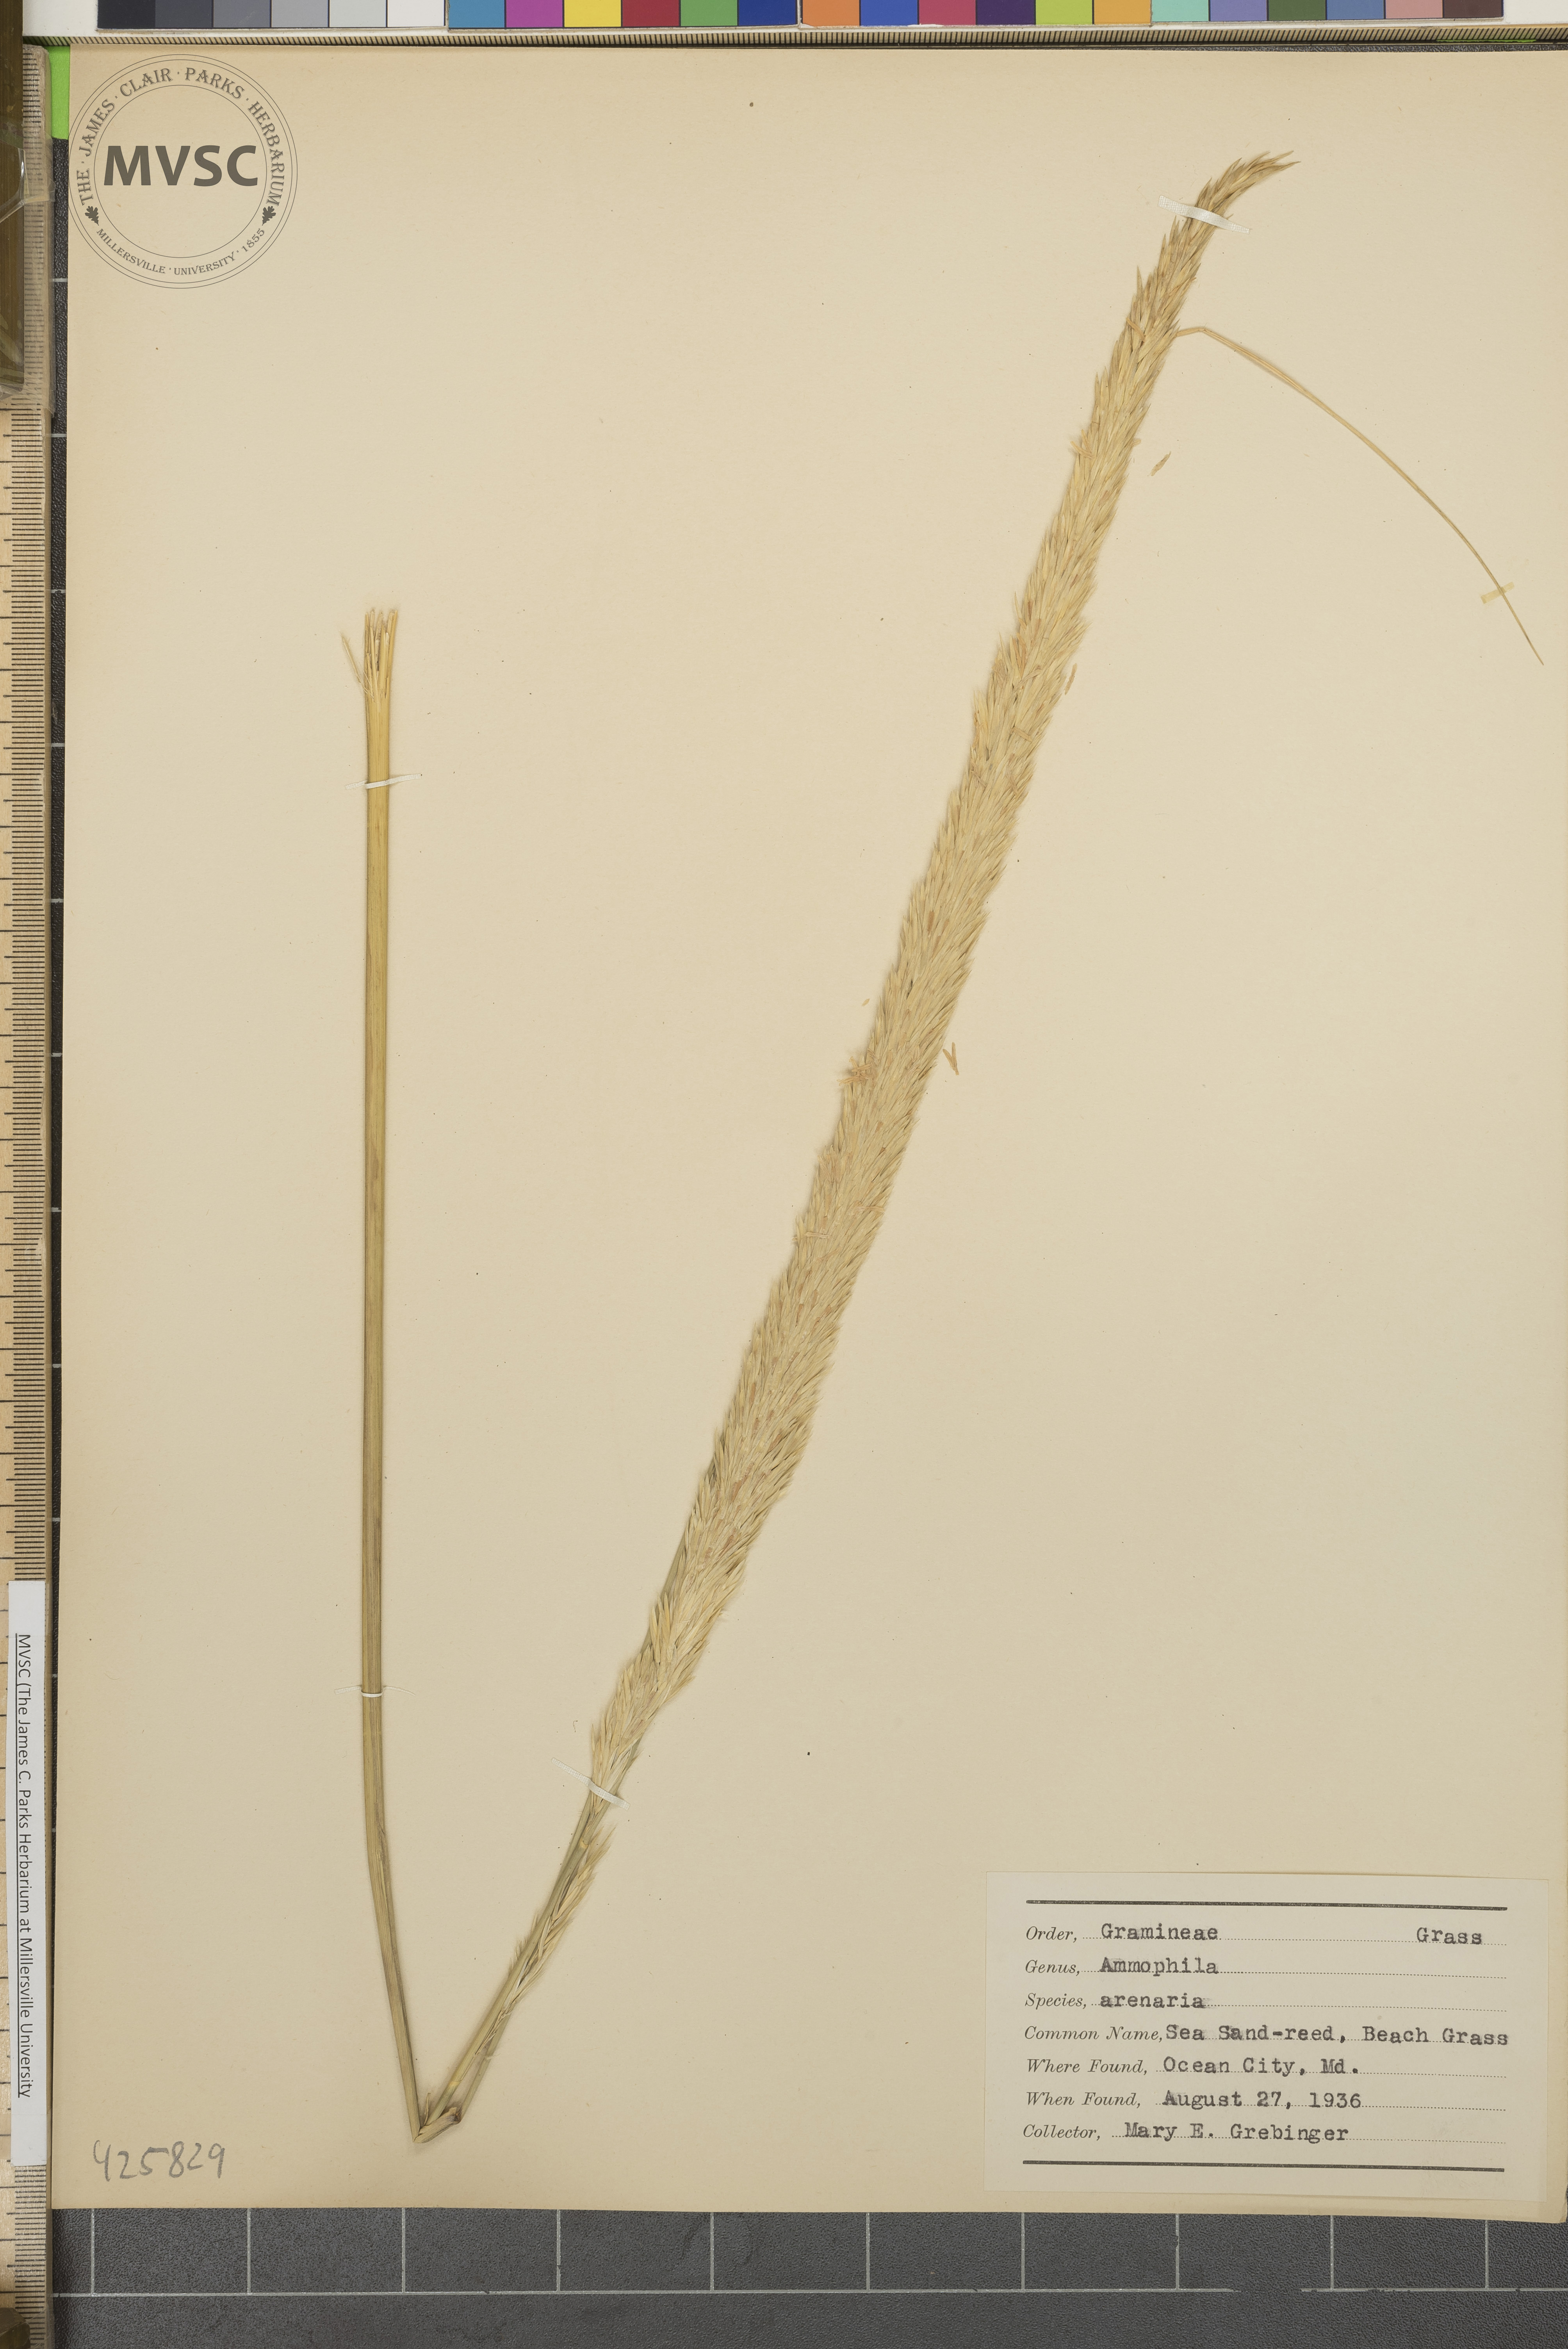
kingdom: Plantae
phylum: Tracheophyta
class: Liliopsida
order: Poales
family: Poaceae
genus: Calamagrostis
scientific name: Calamagrostis arenaria
